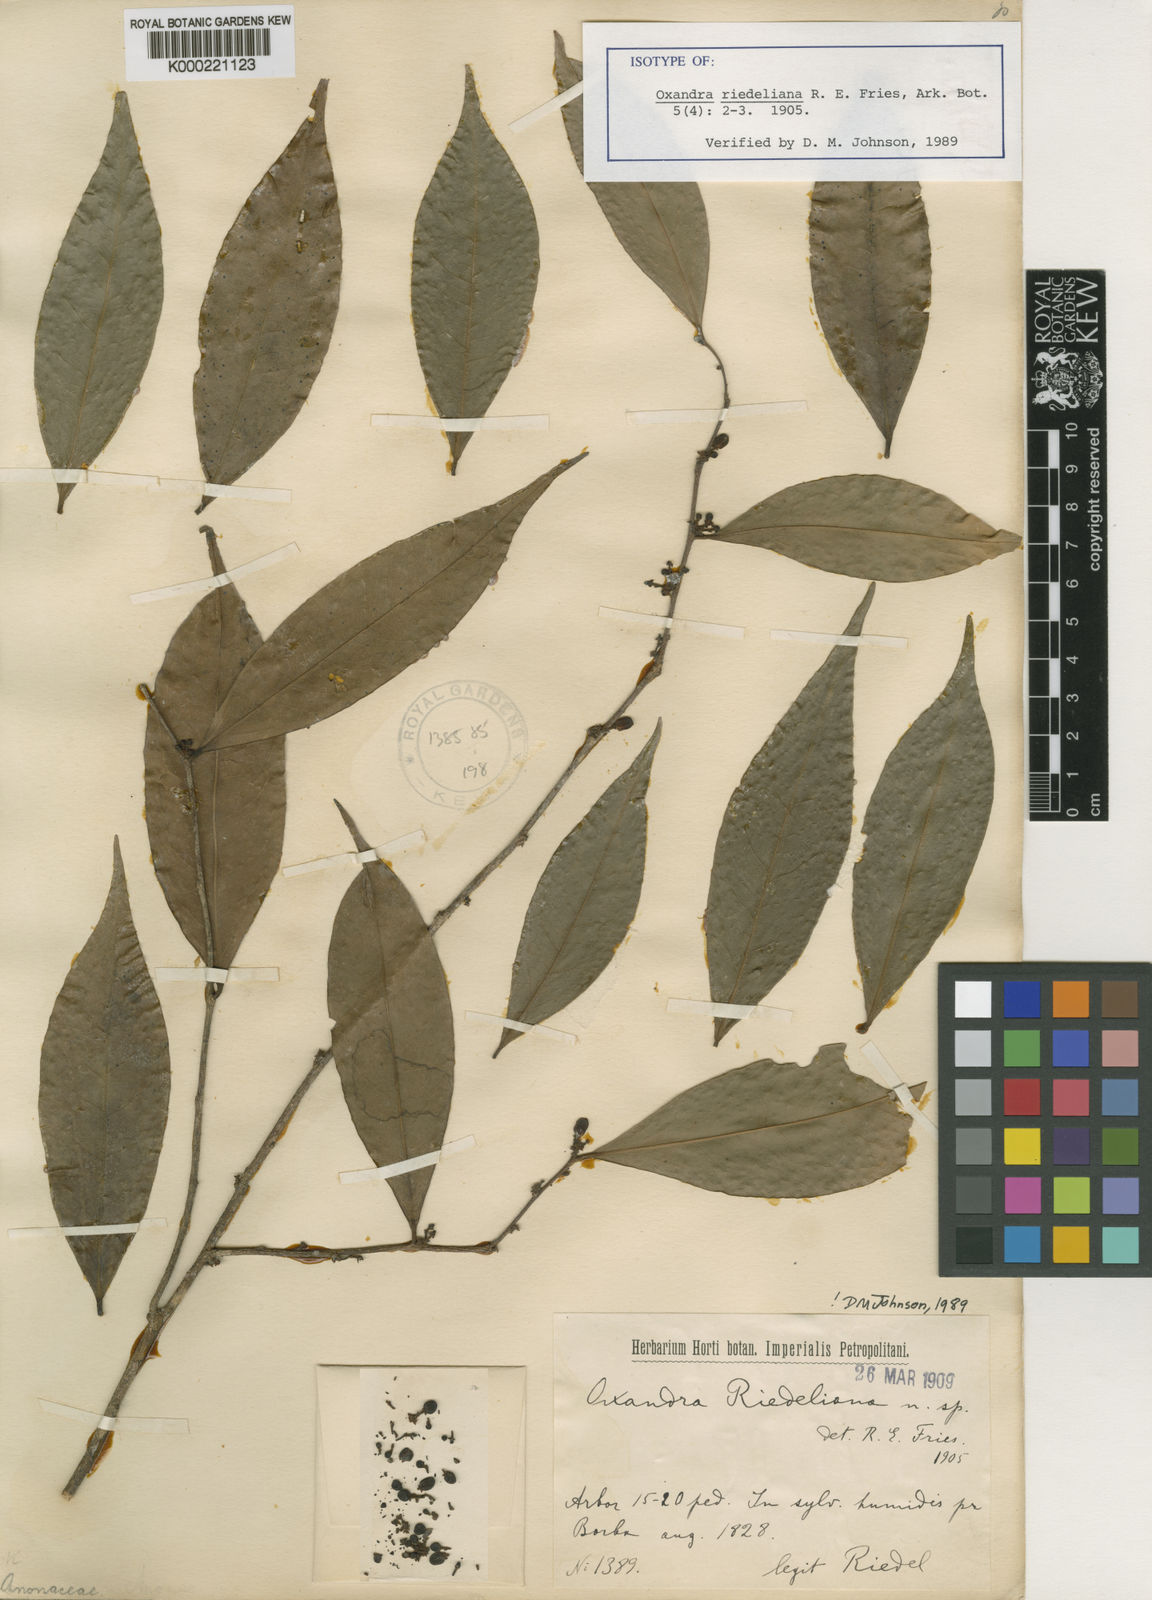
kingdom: Plantae
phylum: Tracheophyta
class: Magnoliopsida
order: Magnoliales
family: Annonaceae
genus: Oxandra
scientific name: Oxandra riedeliana
